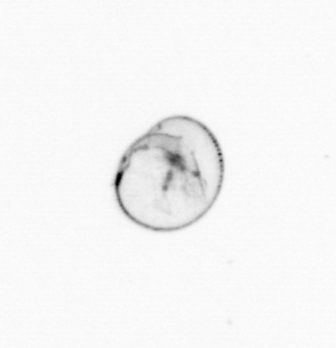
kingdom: Chromista
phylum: Myzozoa
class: Dinophyceae
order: Noctilucales
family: Noctilucaceae
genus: Noctiluca
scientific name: Noctiluca scintillans
